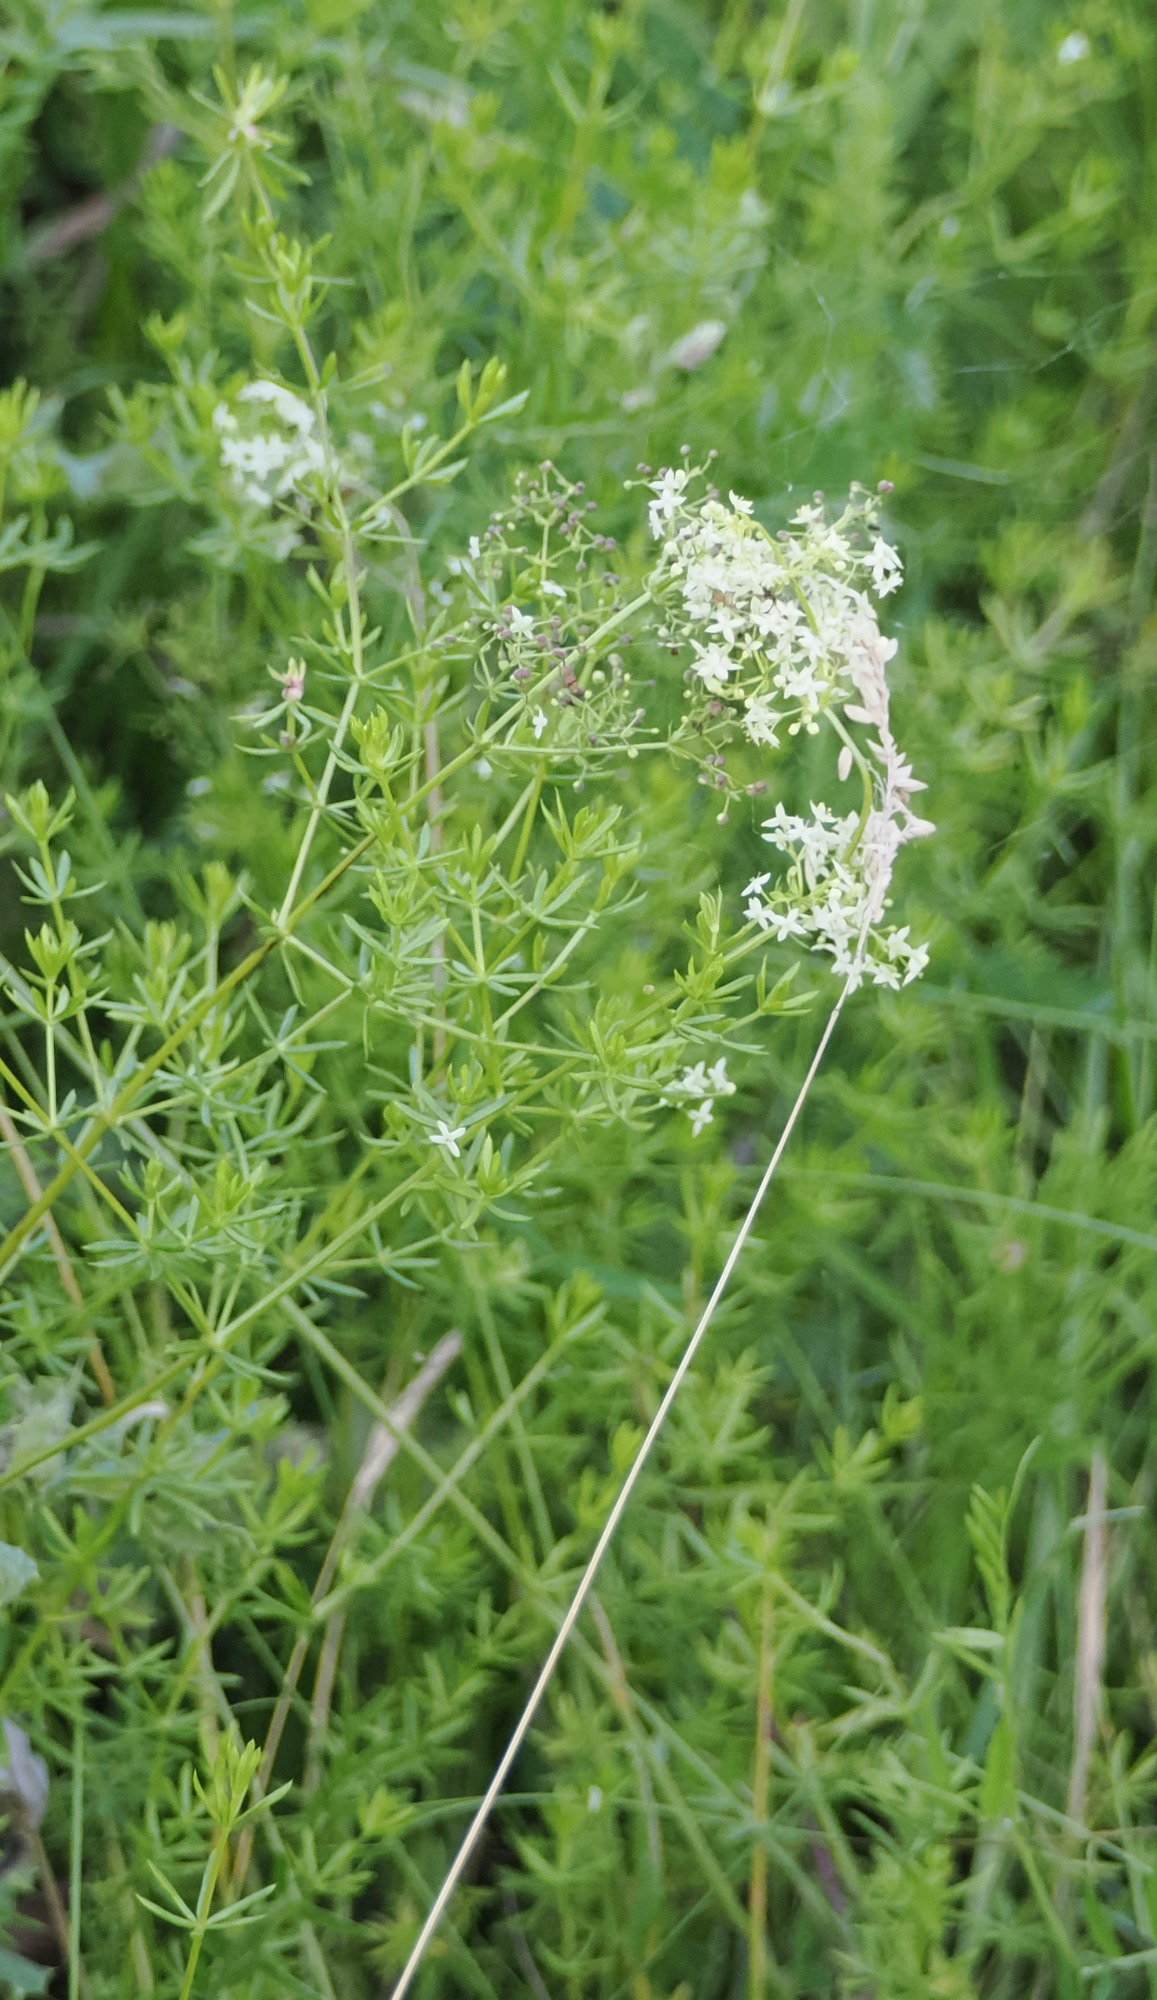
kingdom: Plantae
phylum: Tracheophyta
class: Magnoliopsida
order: Gentianales
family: Rubiaceae
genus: Galium
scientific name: Galium mollugo
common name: Hvid snerre
